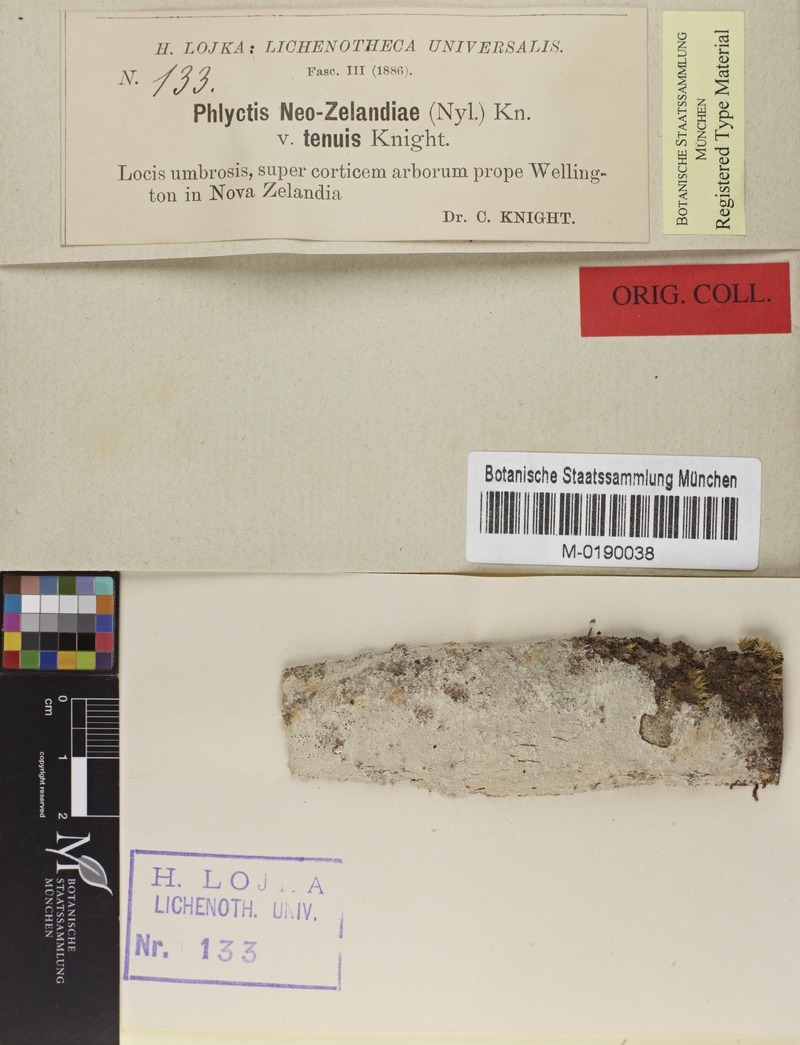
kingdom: Fungi
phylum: Ascomycota
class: Lecanoromycetes
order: Ostropales
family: Phlyctidaceae
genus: Phlyctis
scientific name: Phlyctis
